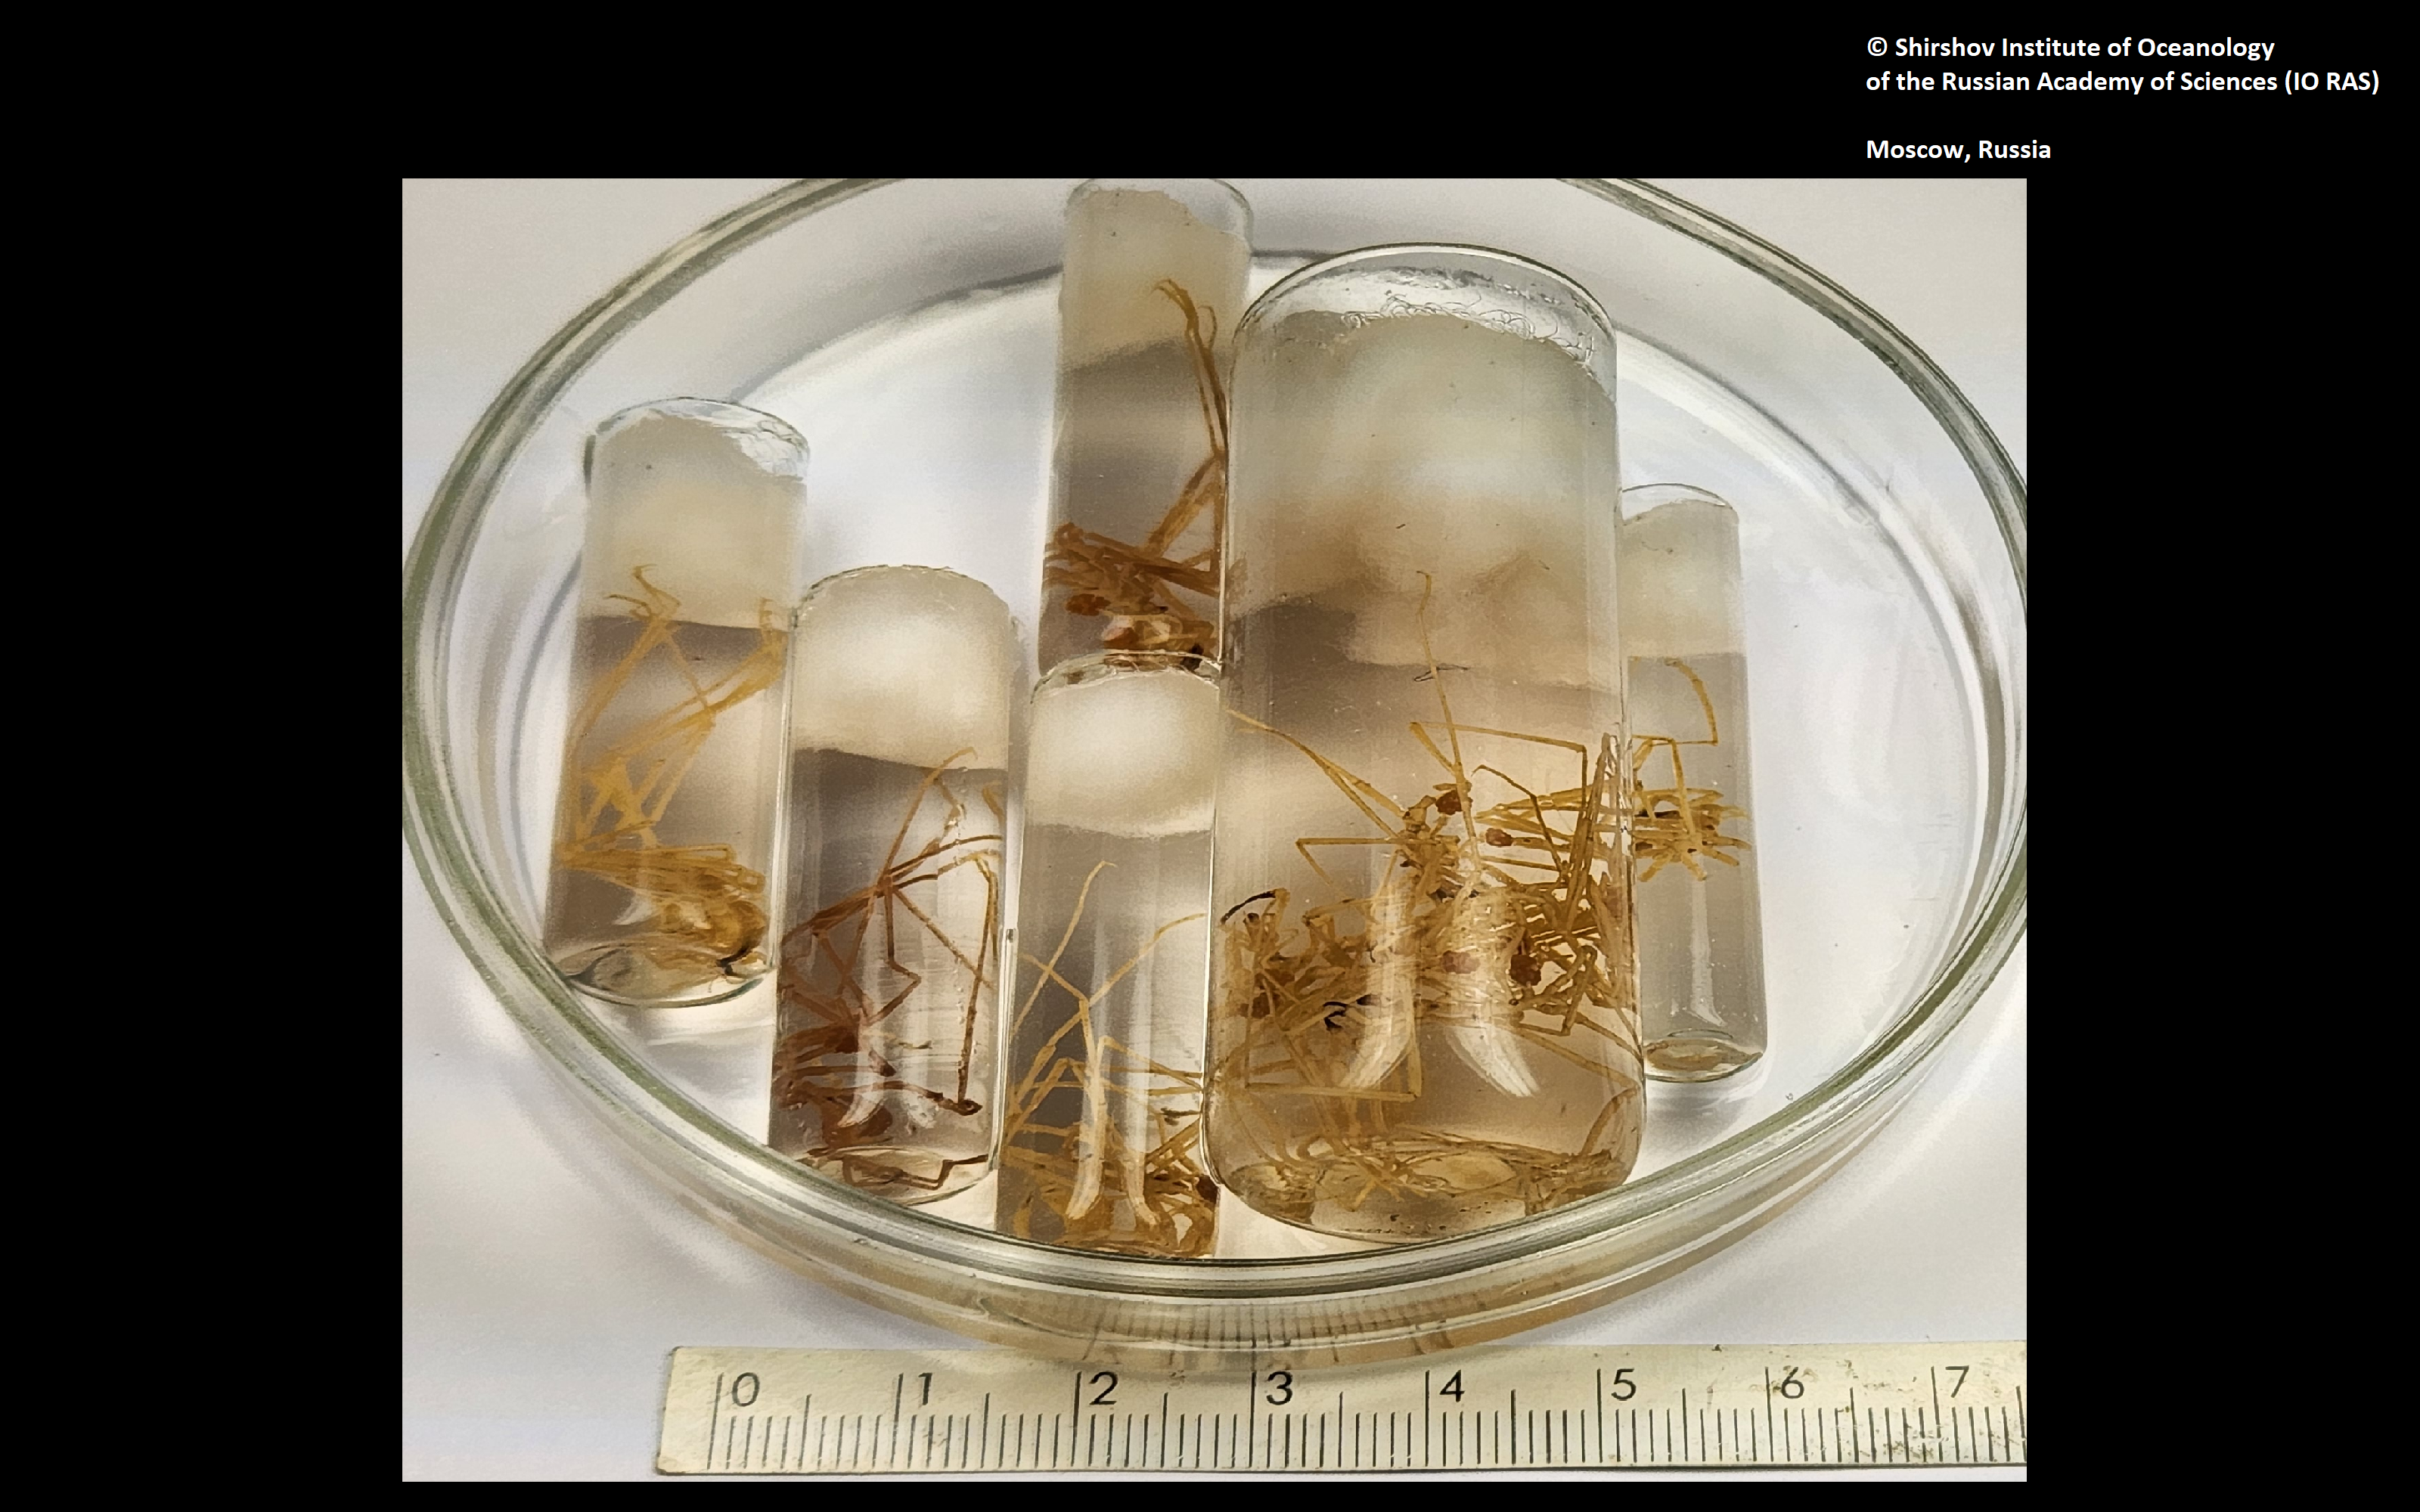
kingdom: Animalia
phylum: Arthropoda
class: Pycnogonida
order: Pantopoda
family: Nymphonidae
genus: Nymphon
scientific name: Nymphon nipponense
